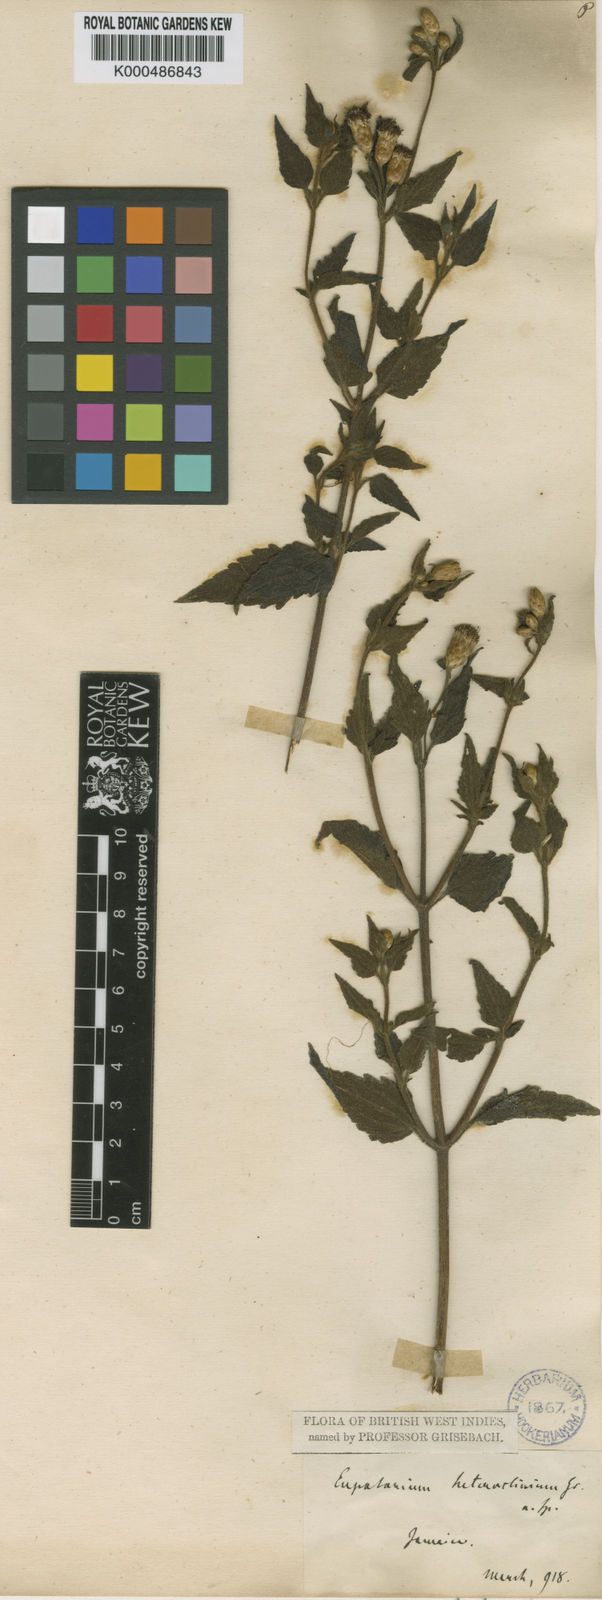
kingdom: Plantae
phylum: Tracheophyta
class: Magnoliopsida
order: Asterales
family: Asteraceae
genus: Chromolaena
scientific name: Chromolaena heteroclinia
